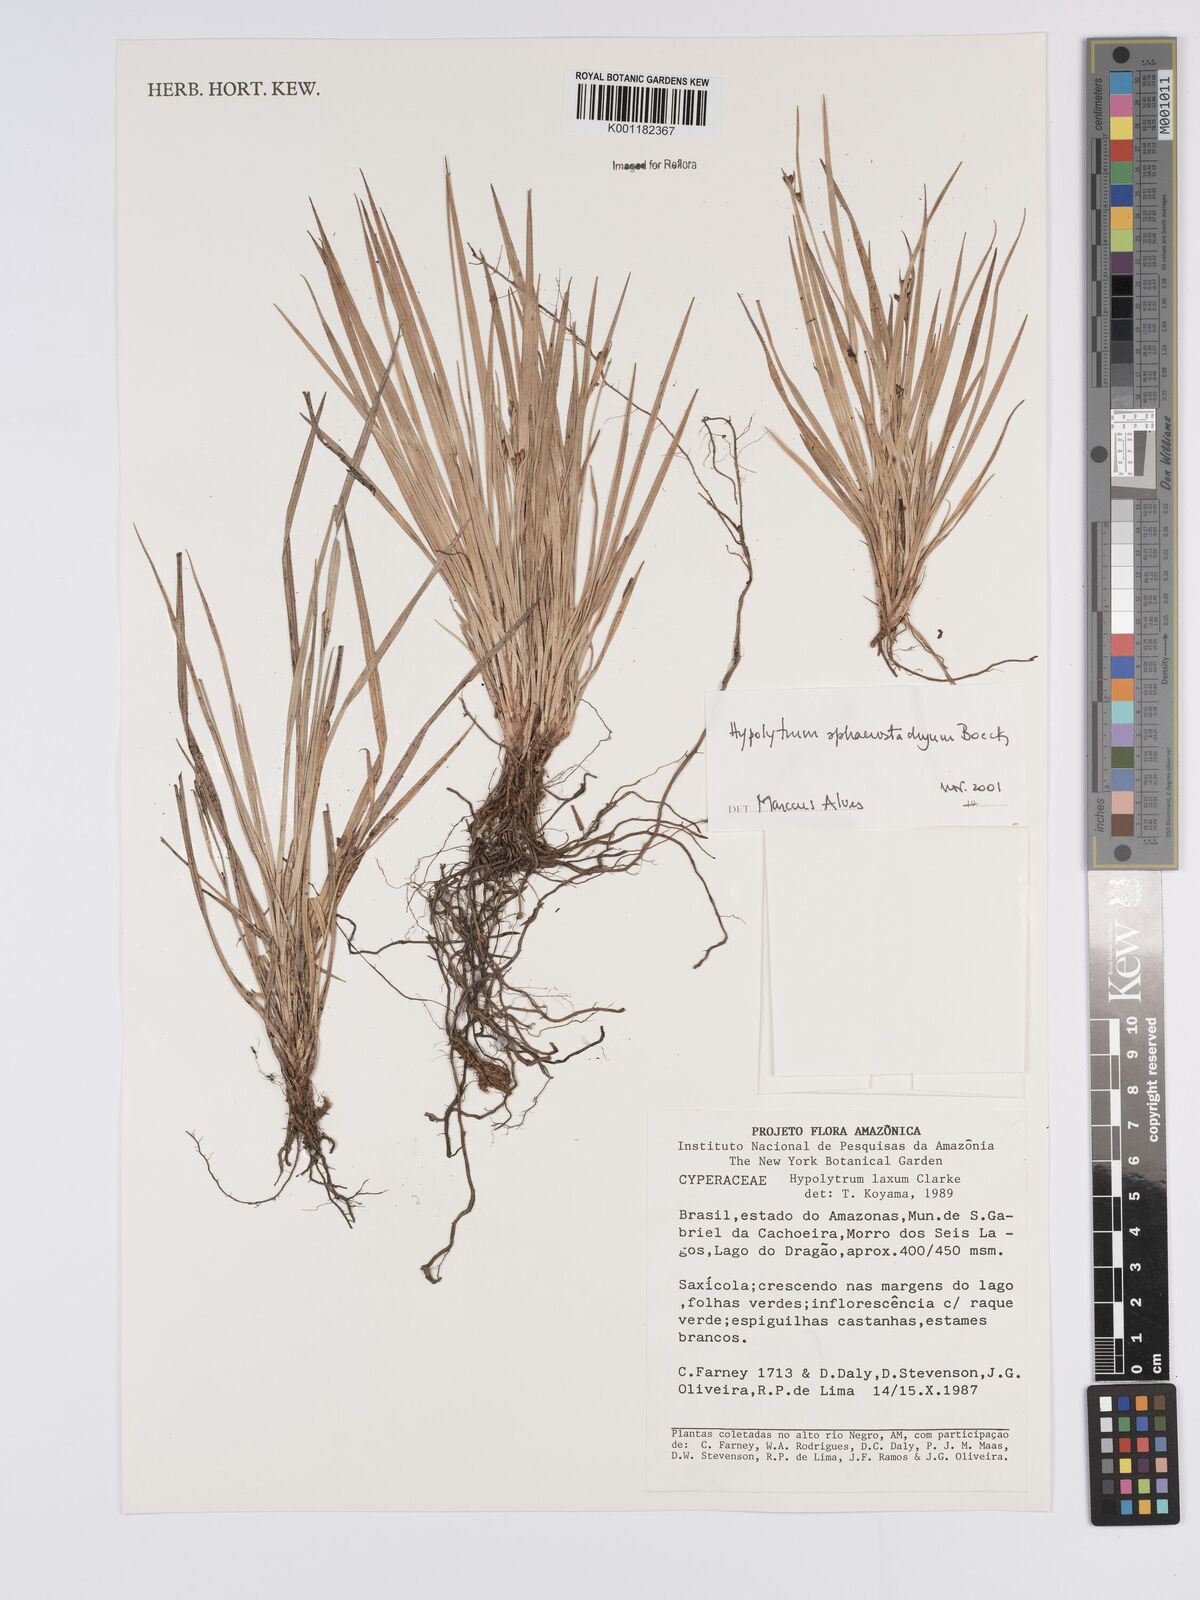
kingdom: Plantae
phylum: Tracheophyta
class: Liliopsida
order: Poales
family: Cyperaceae
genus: Hypolytrum
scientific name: Hypolytrum sphaerostachyum
